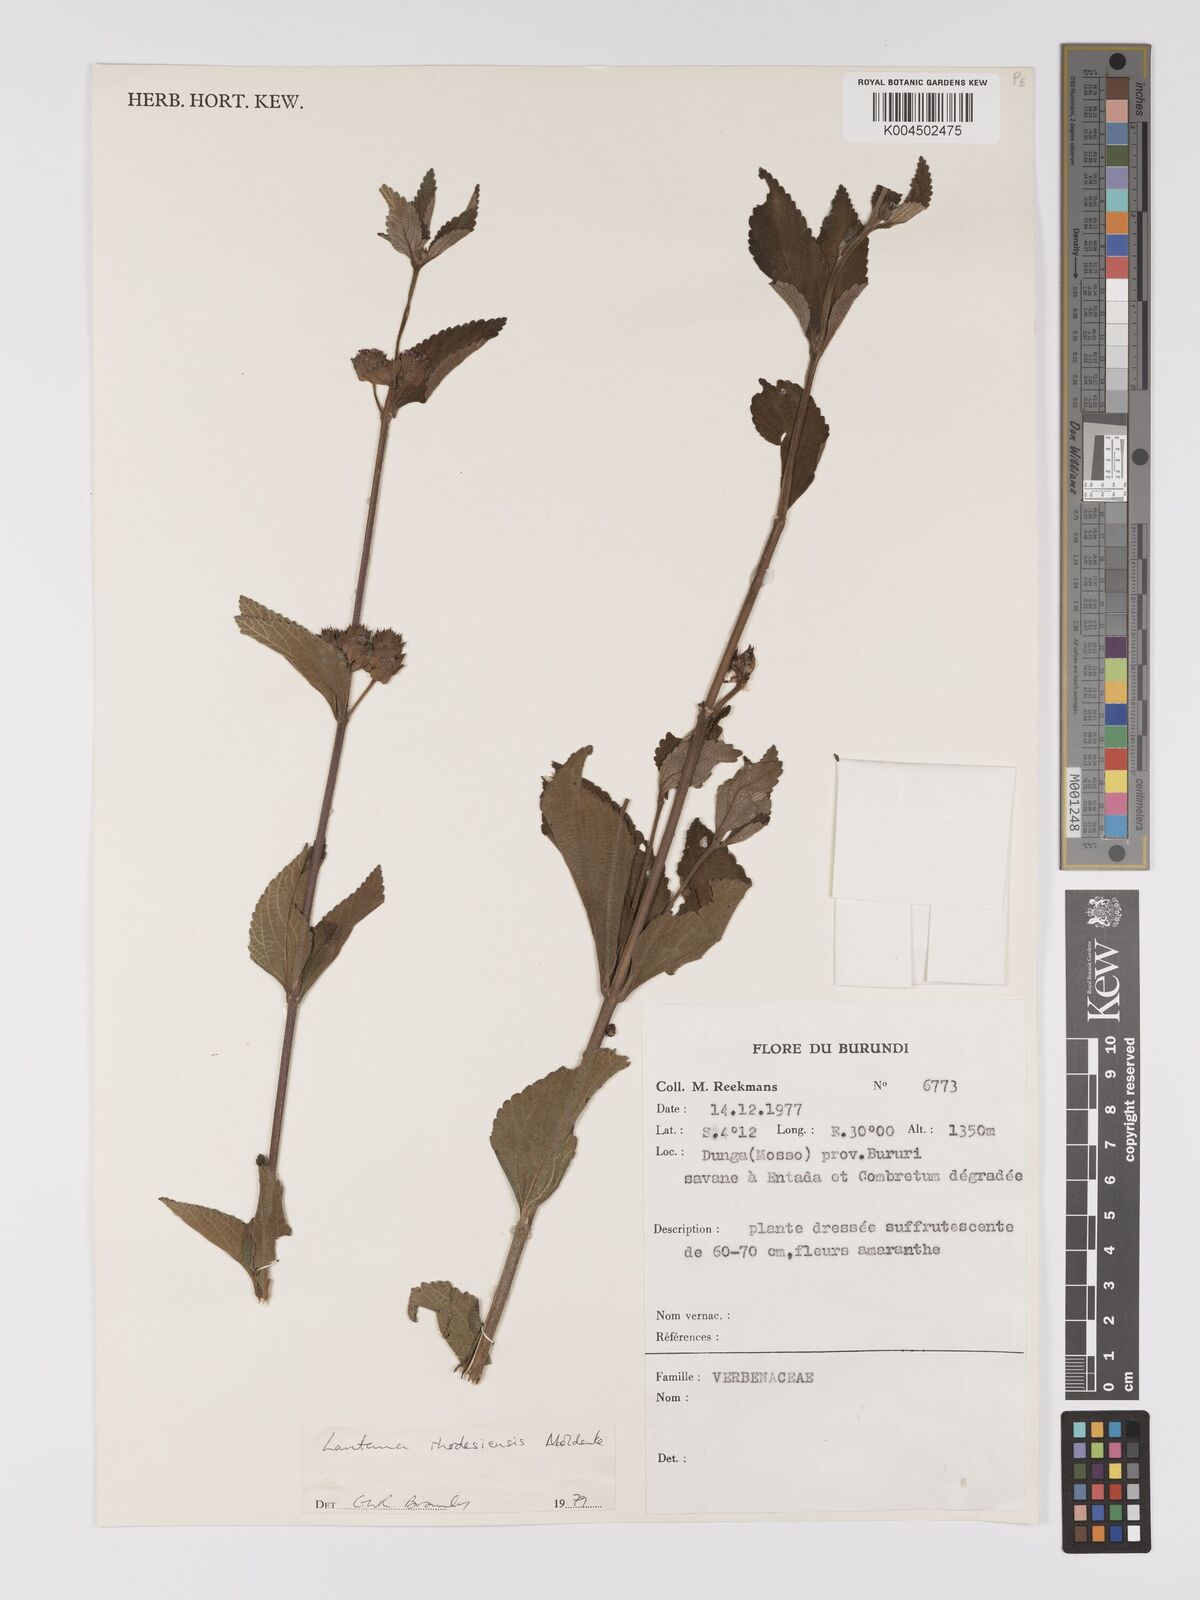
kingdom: Plantae
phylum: Tracheophyta
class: Magnoliopsida
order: Lamiales
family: Verbenaceae
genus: Lantana
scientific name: Lantana ukambensis
